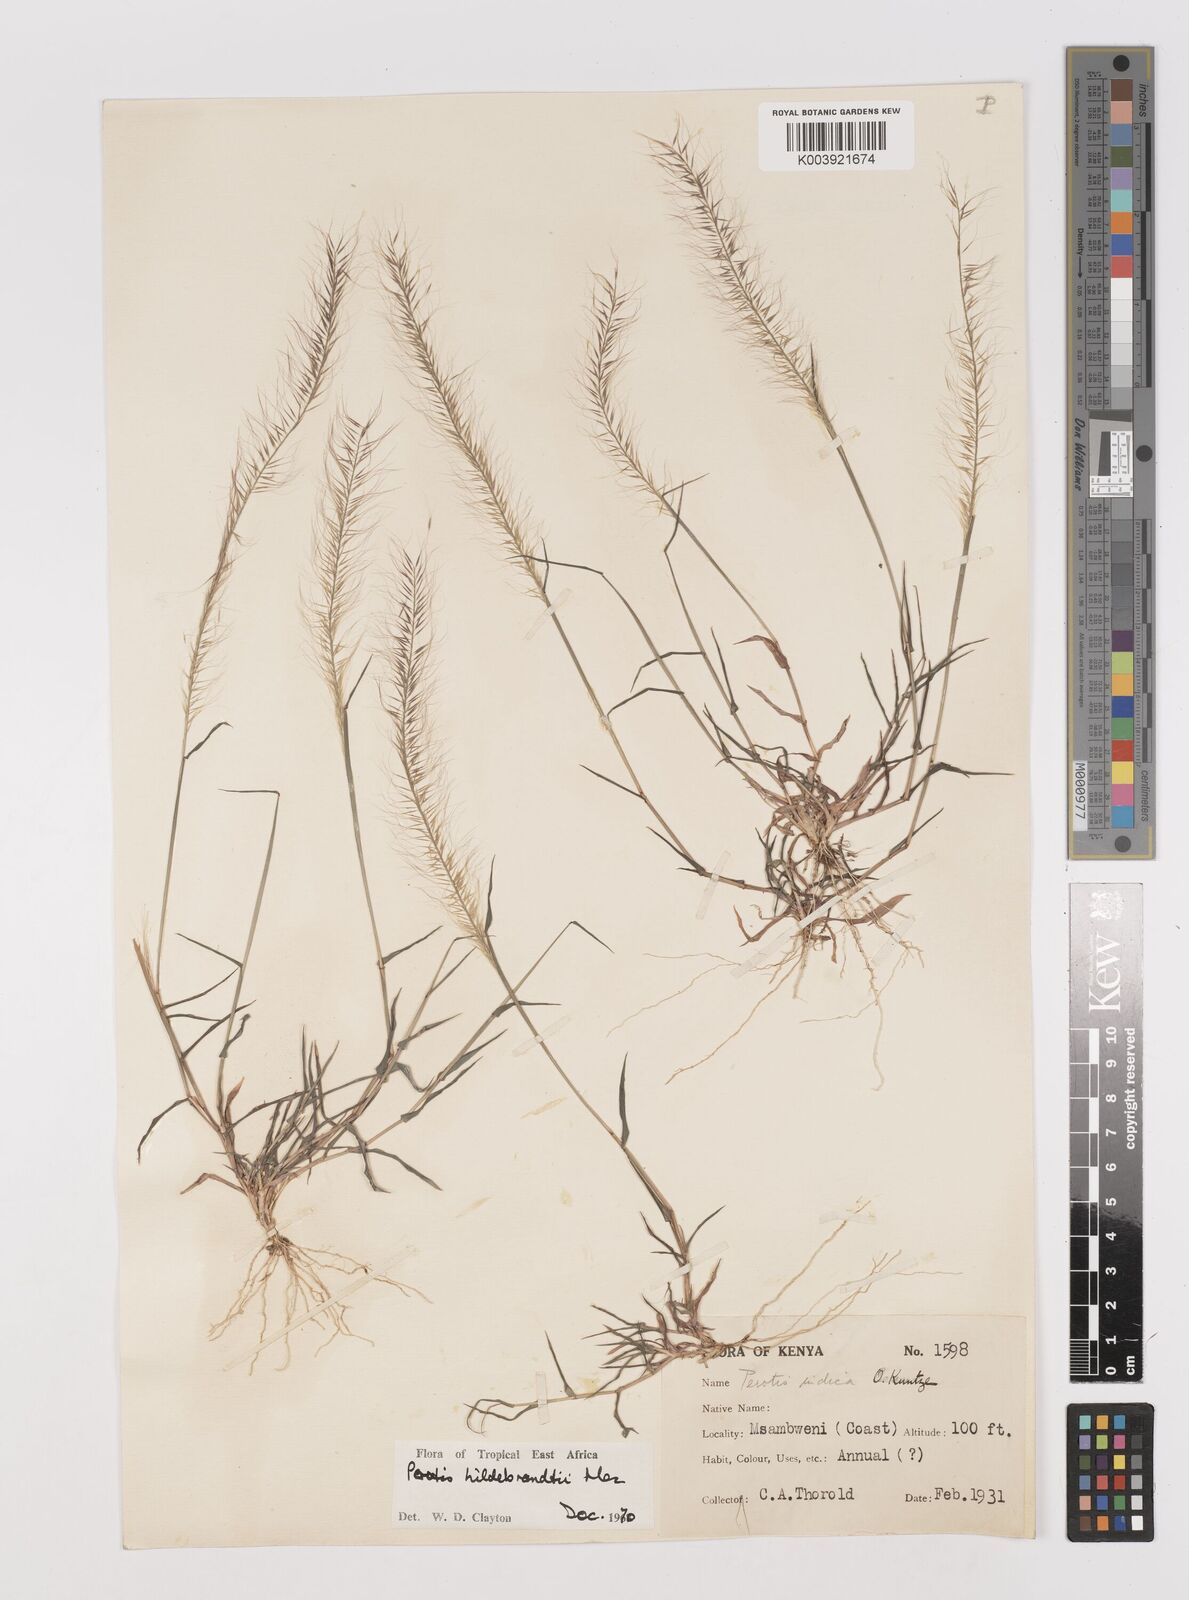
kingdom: Plantae
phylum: Tracheophyta
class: Liliopsida
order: Poales
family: Poaceae
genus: Perotis
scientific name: Perotis hildebrandtii
